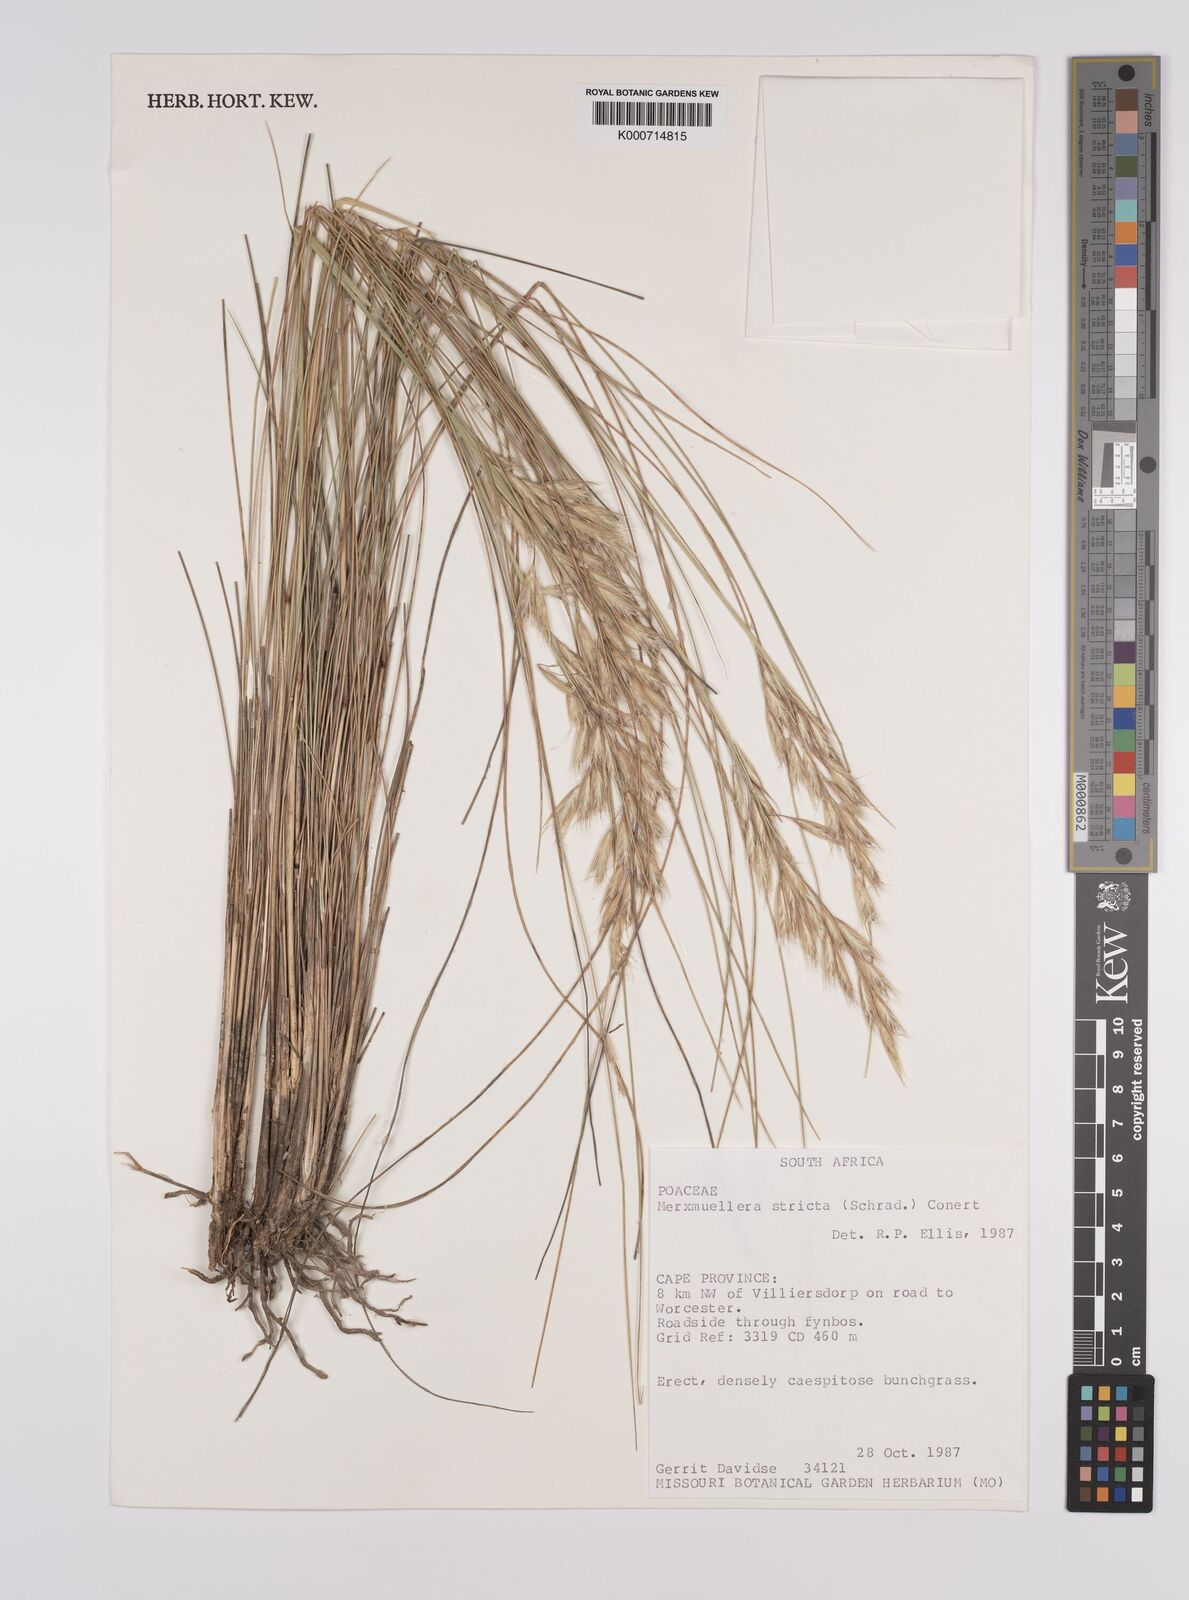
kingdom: Plantae
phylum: Tracheophyta
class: Liliopsida
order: Poales
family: Poaceae
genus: Rytidosperma
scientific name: Rytidosperma
